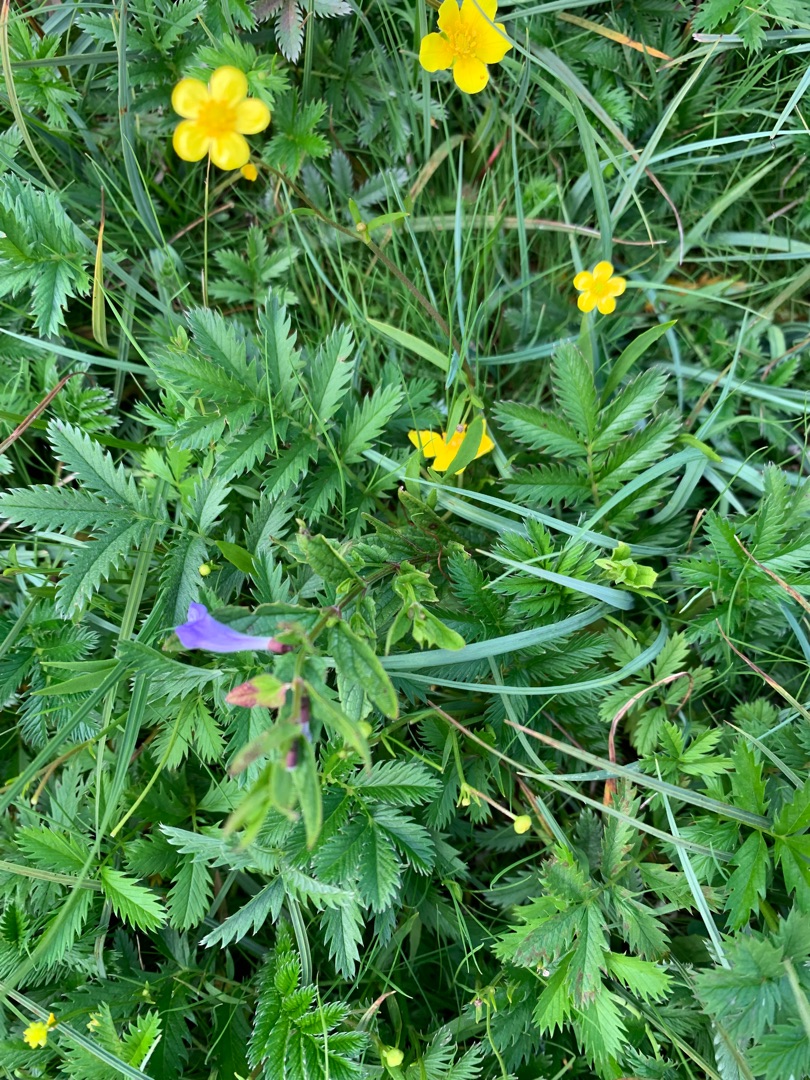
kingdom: Plantae
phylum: Tracheophyta
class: Magnoliopsida
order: Lamiales
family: Lamiaceae
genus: Scutellaria
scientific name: Scutellaria galericulata
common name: Almindelig skjolddrager
